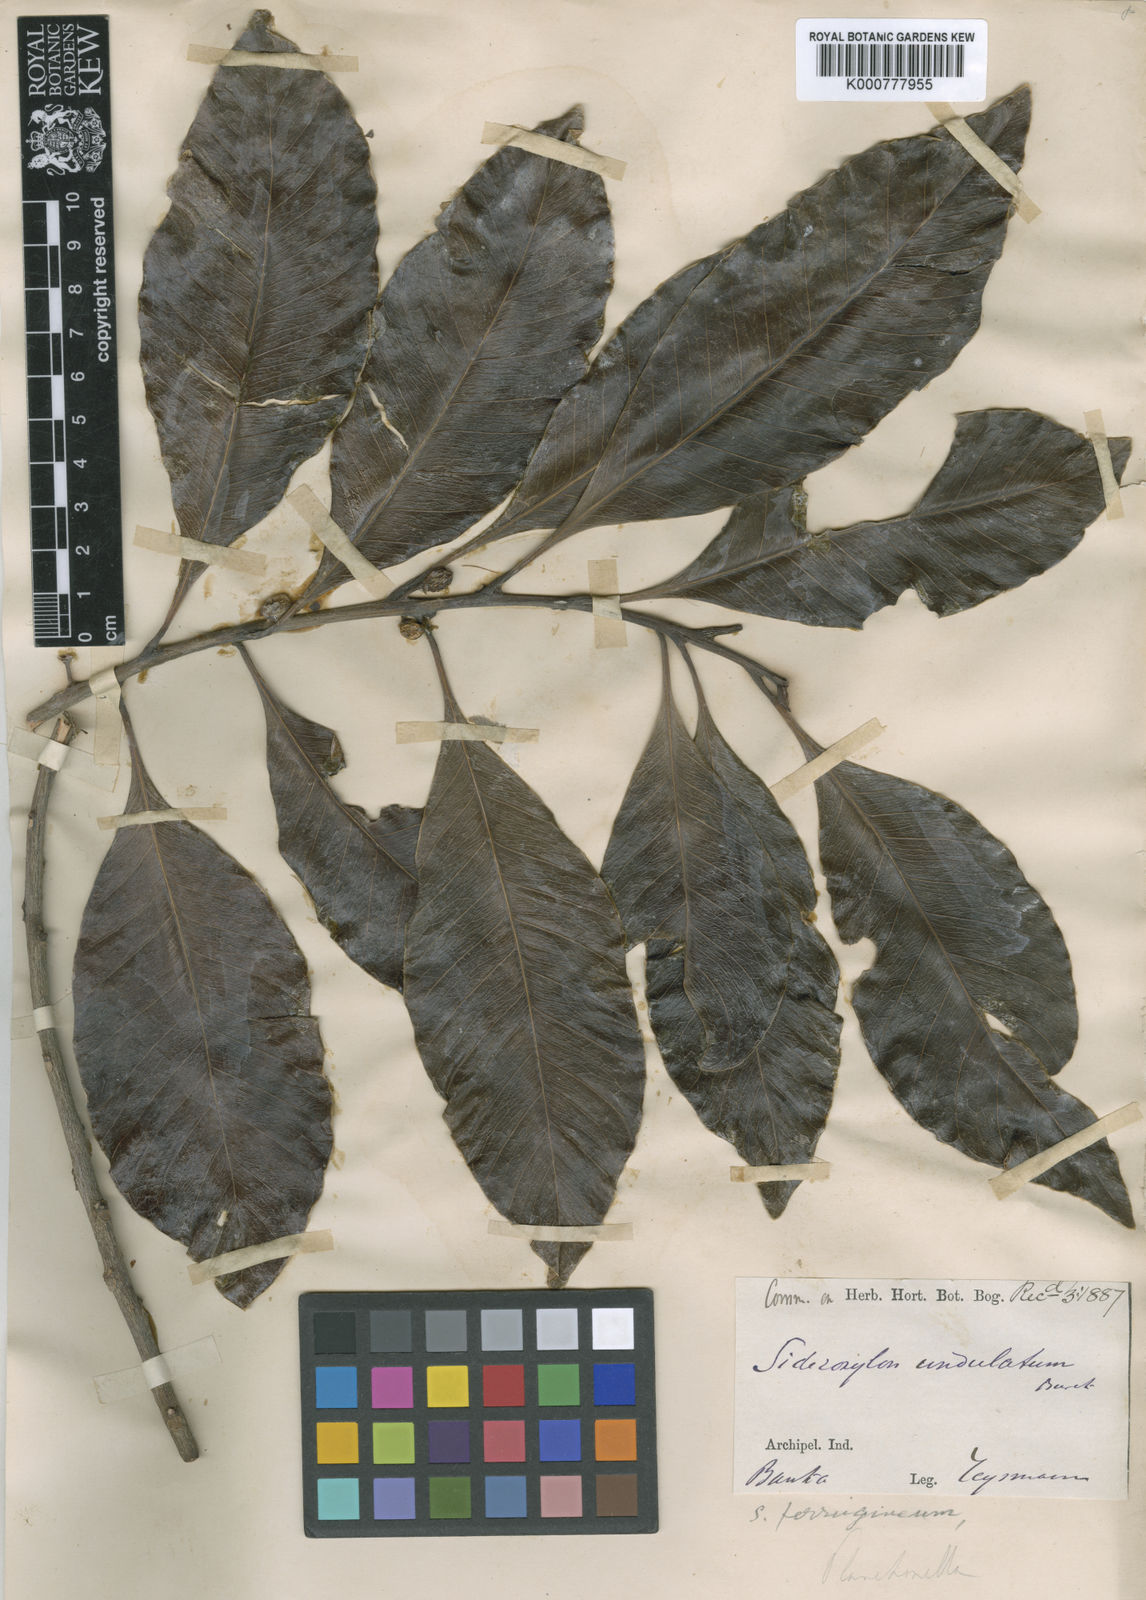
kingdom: Plantae
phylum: Tracheophyta
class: Magnoliopsida
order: Ericales
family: Sapotaceae
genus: Planchonella
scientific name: Planchonella obovata
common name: Black-ash
